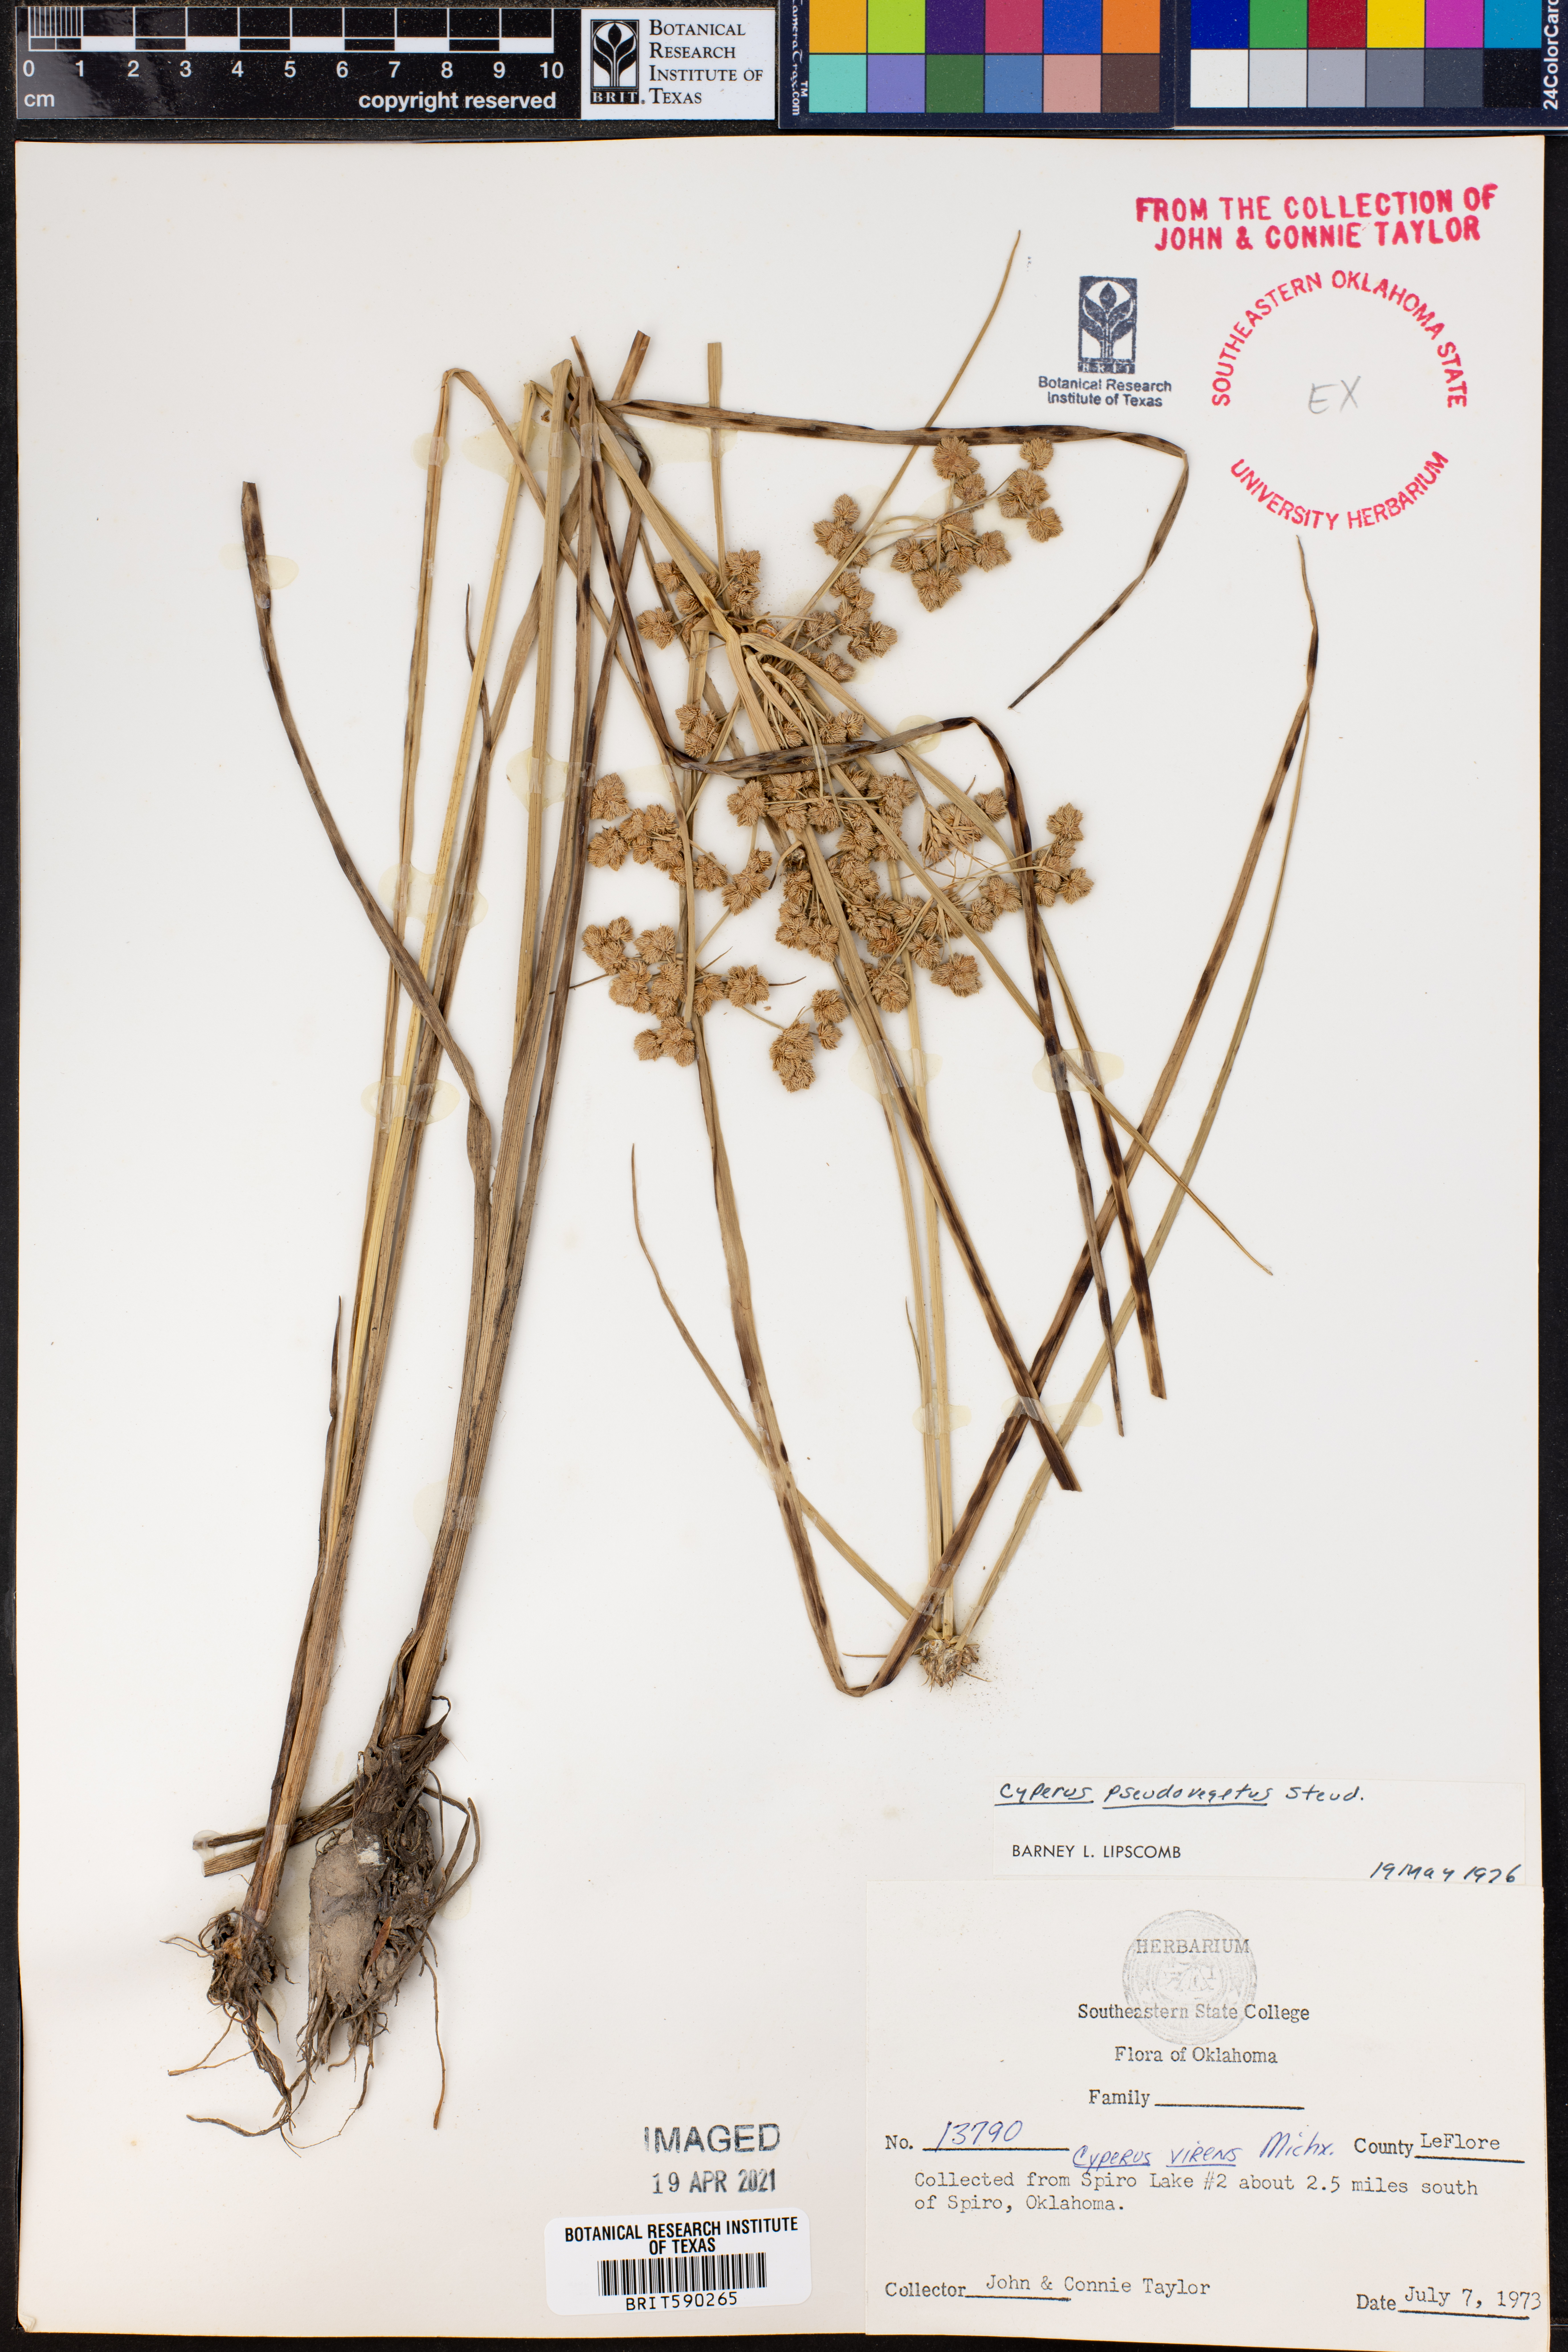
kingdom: Plantae
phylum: Tracheophyta
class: Liliopsida
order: Poales
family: Cyperaceae
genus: Cyperus
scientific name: Cyperus pseudovegetus
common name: Marsh flat sedge
